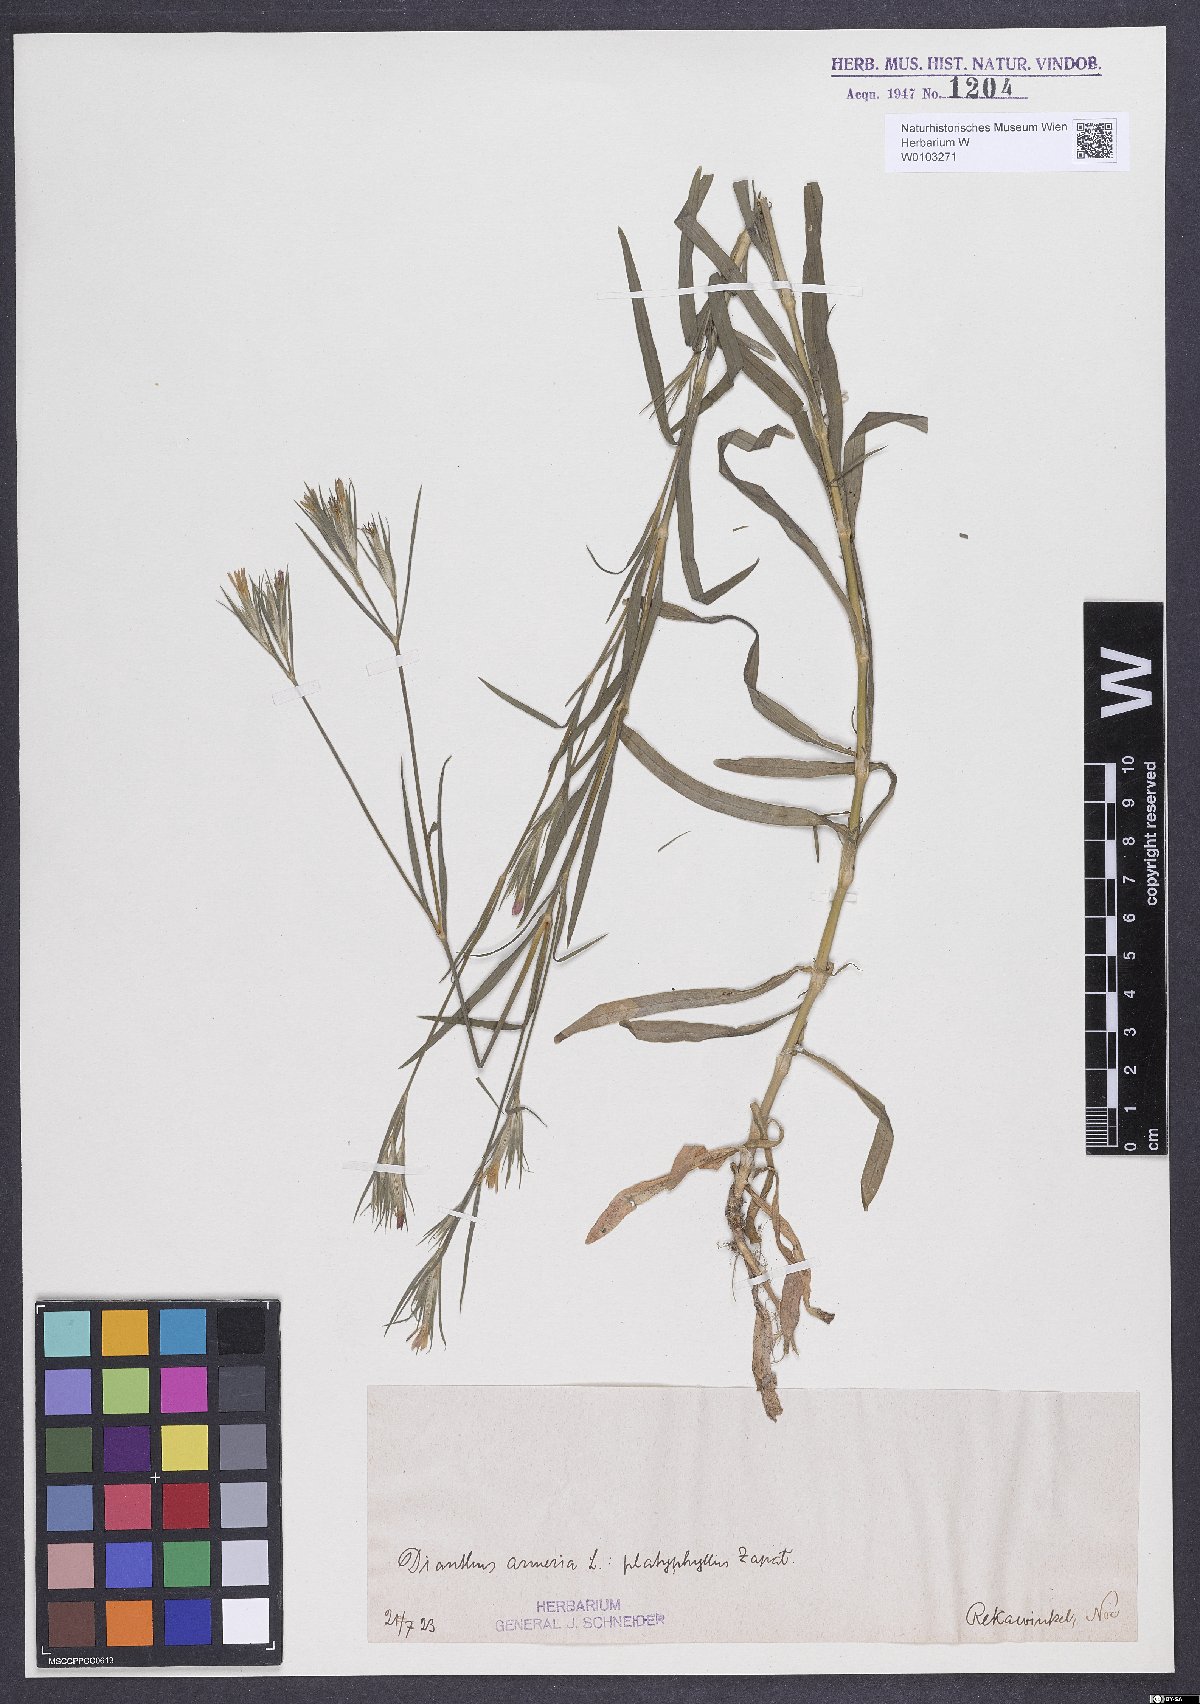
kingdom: Plantae
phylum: Tracheophyta
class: Magnoliopsida
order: Caryophyllales
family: Caryophyllaceae
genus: Dianthus
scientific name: Dianthus armeria
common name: Deptford pink
